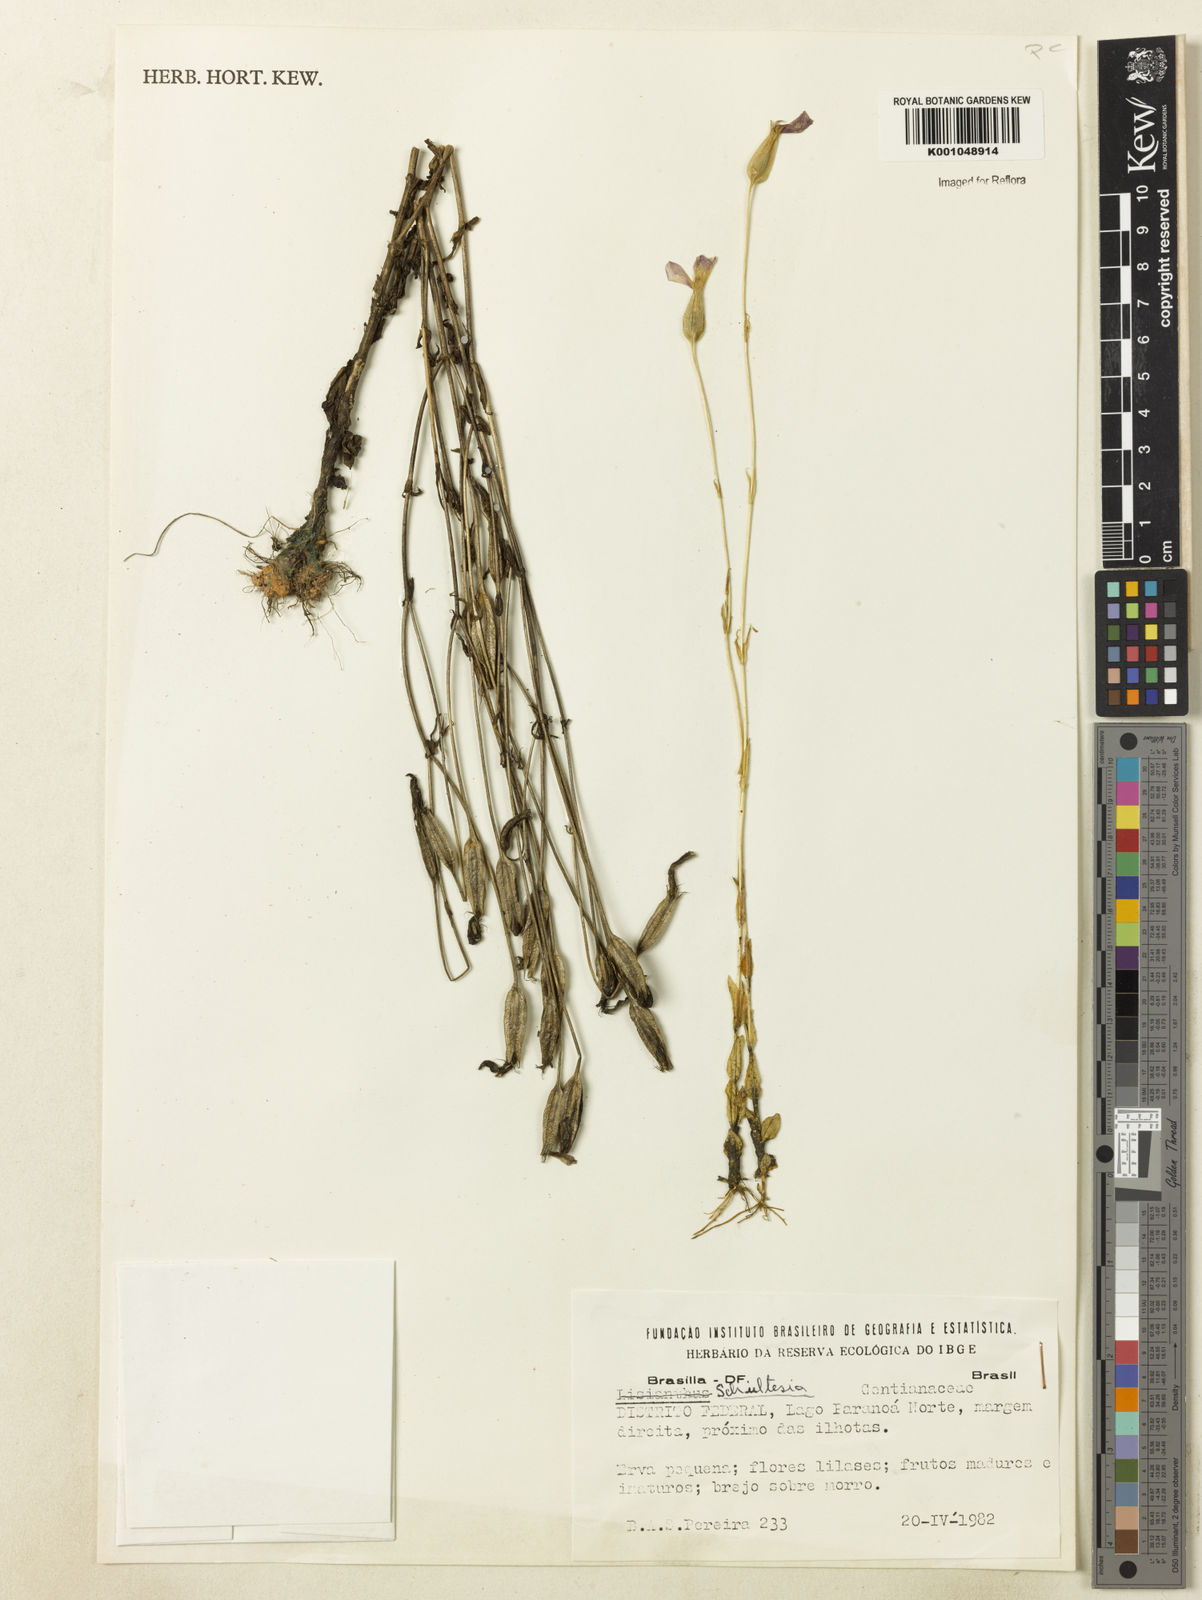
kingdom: Plantae
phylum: Tracheophyta
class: Magnoliopsida
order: Gentianales
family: Gentianaceae
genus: Schultesia
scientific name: Schultesia
